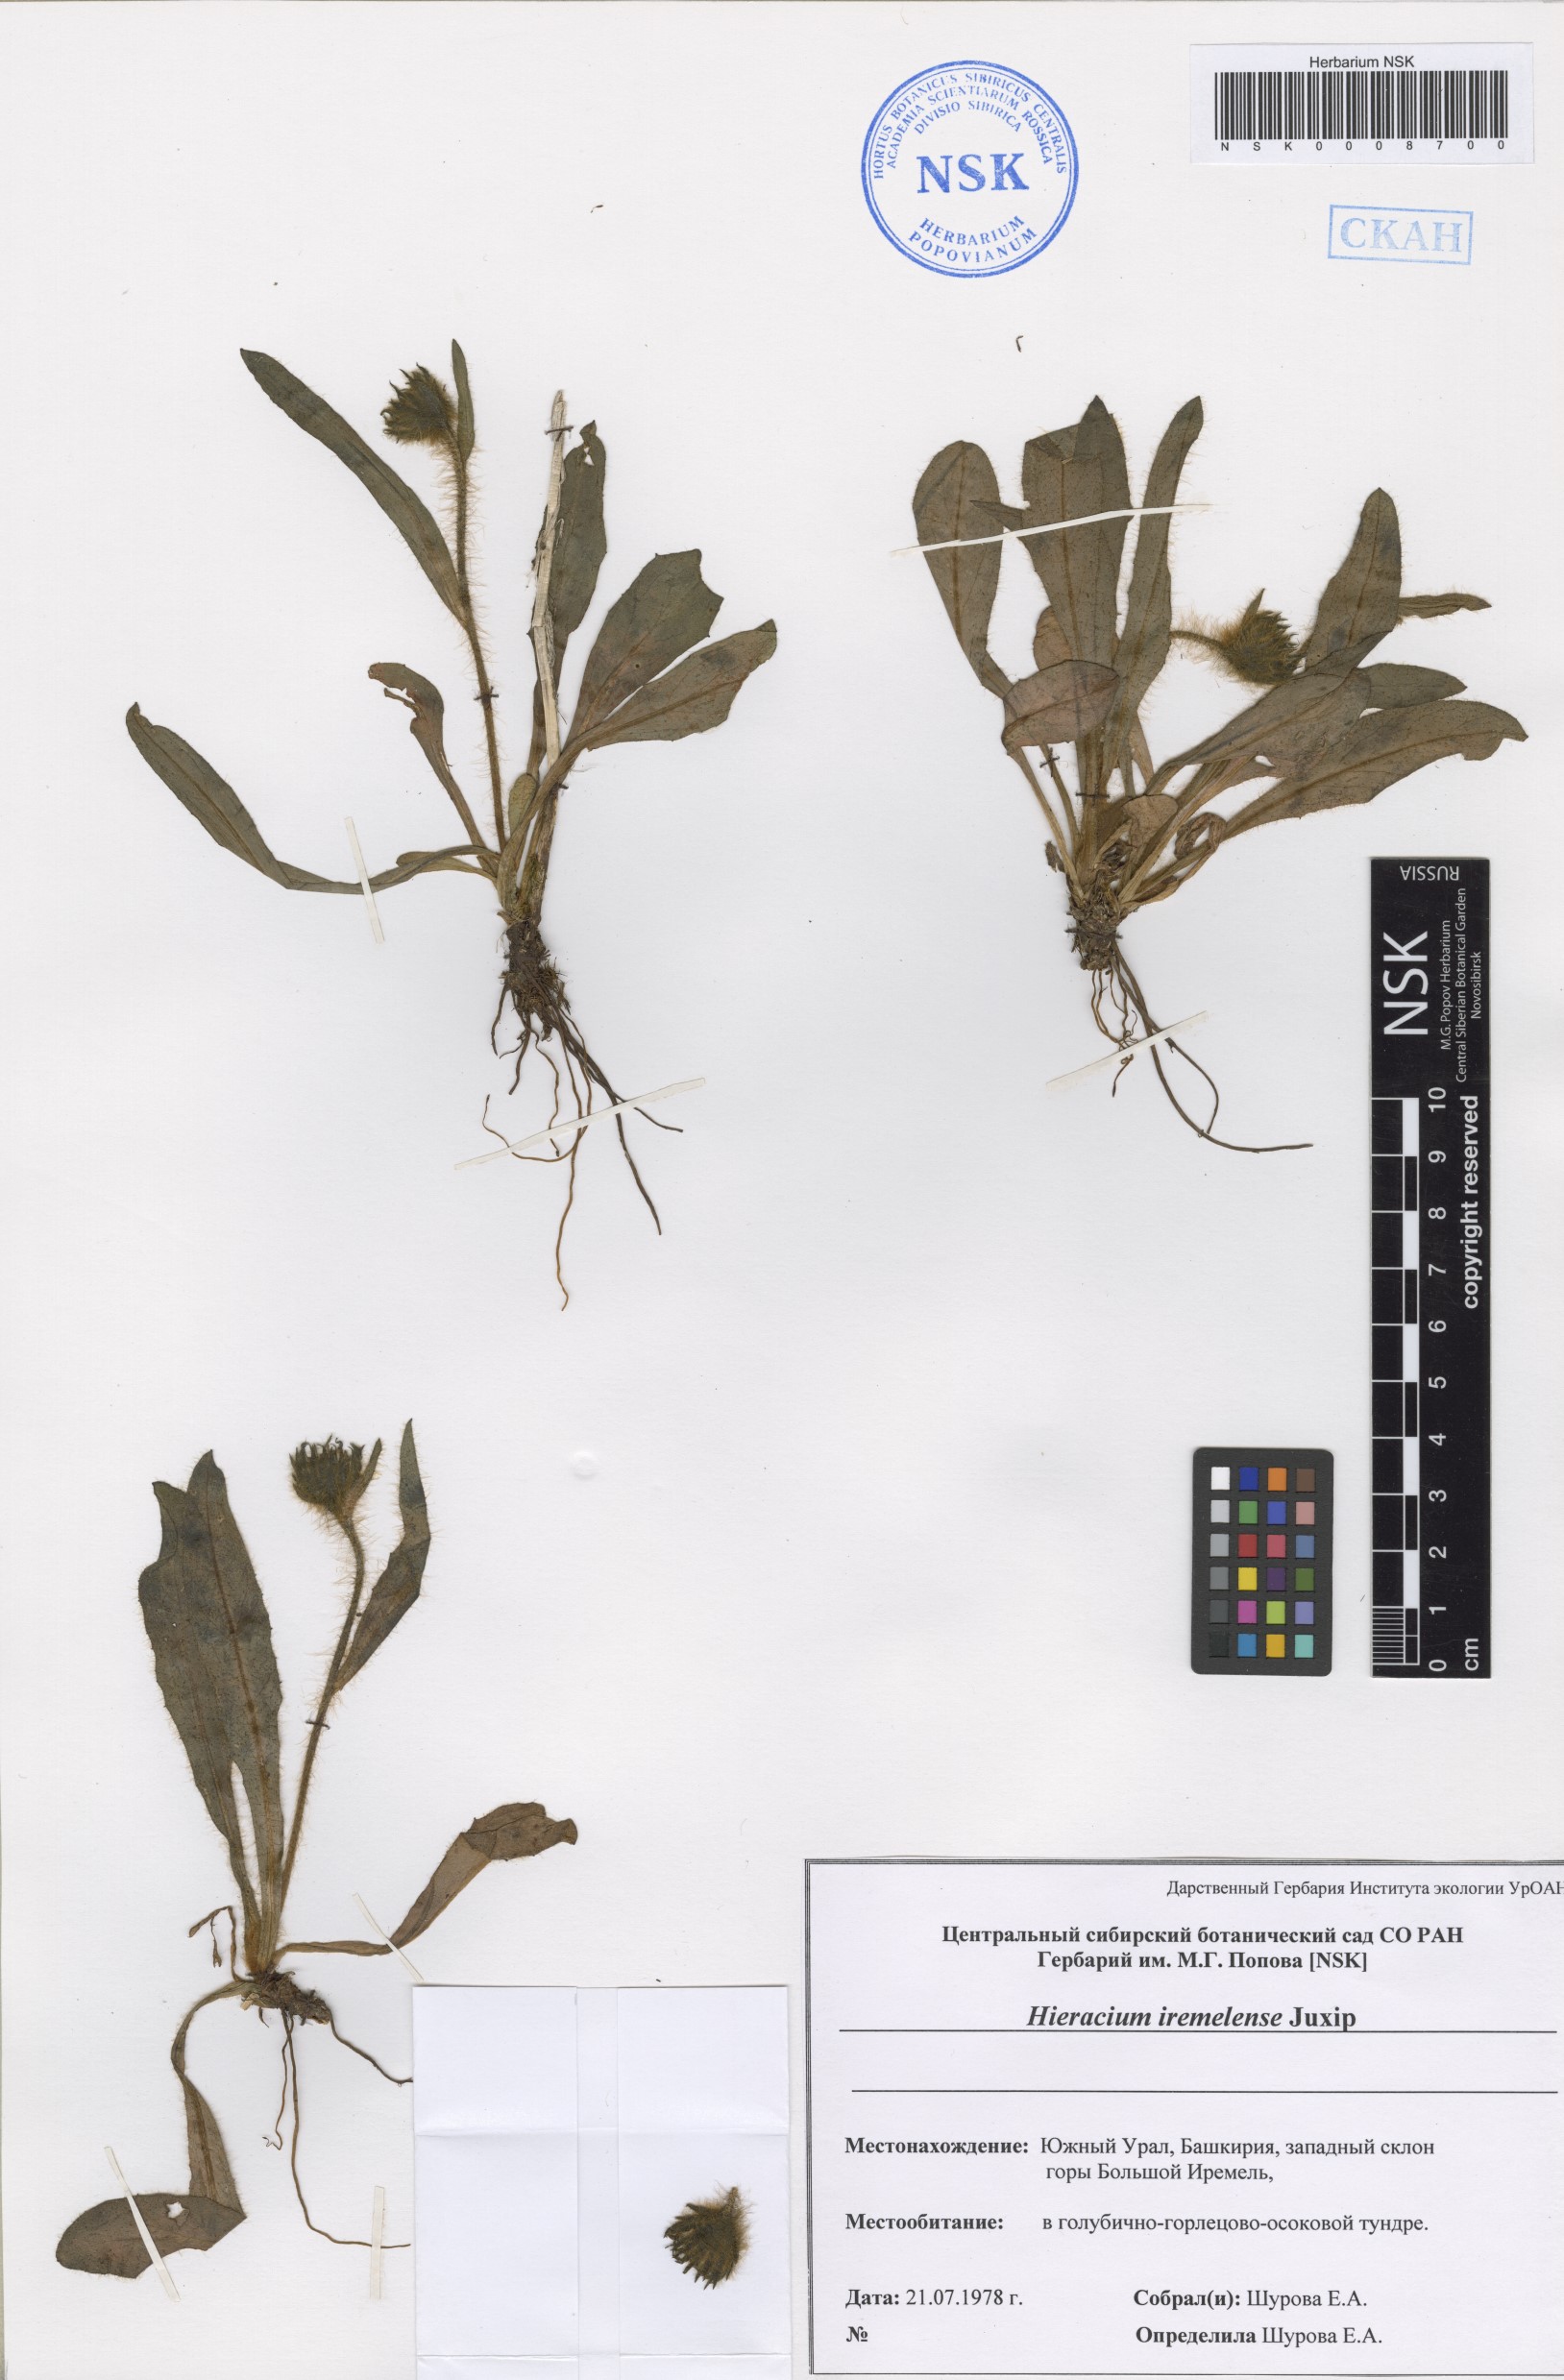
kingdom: Plantae
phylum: Tracheophyta
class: Magnoliopsida
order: Asterales
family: Asteraceae
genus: Hieracium
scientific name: Hieracium iremelense
